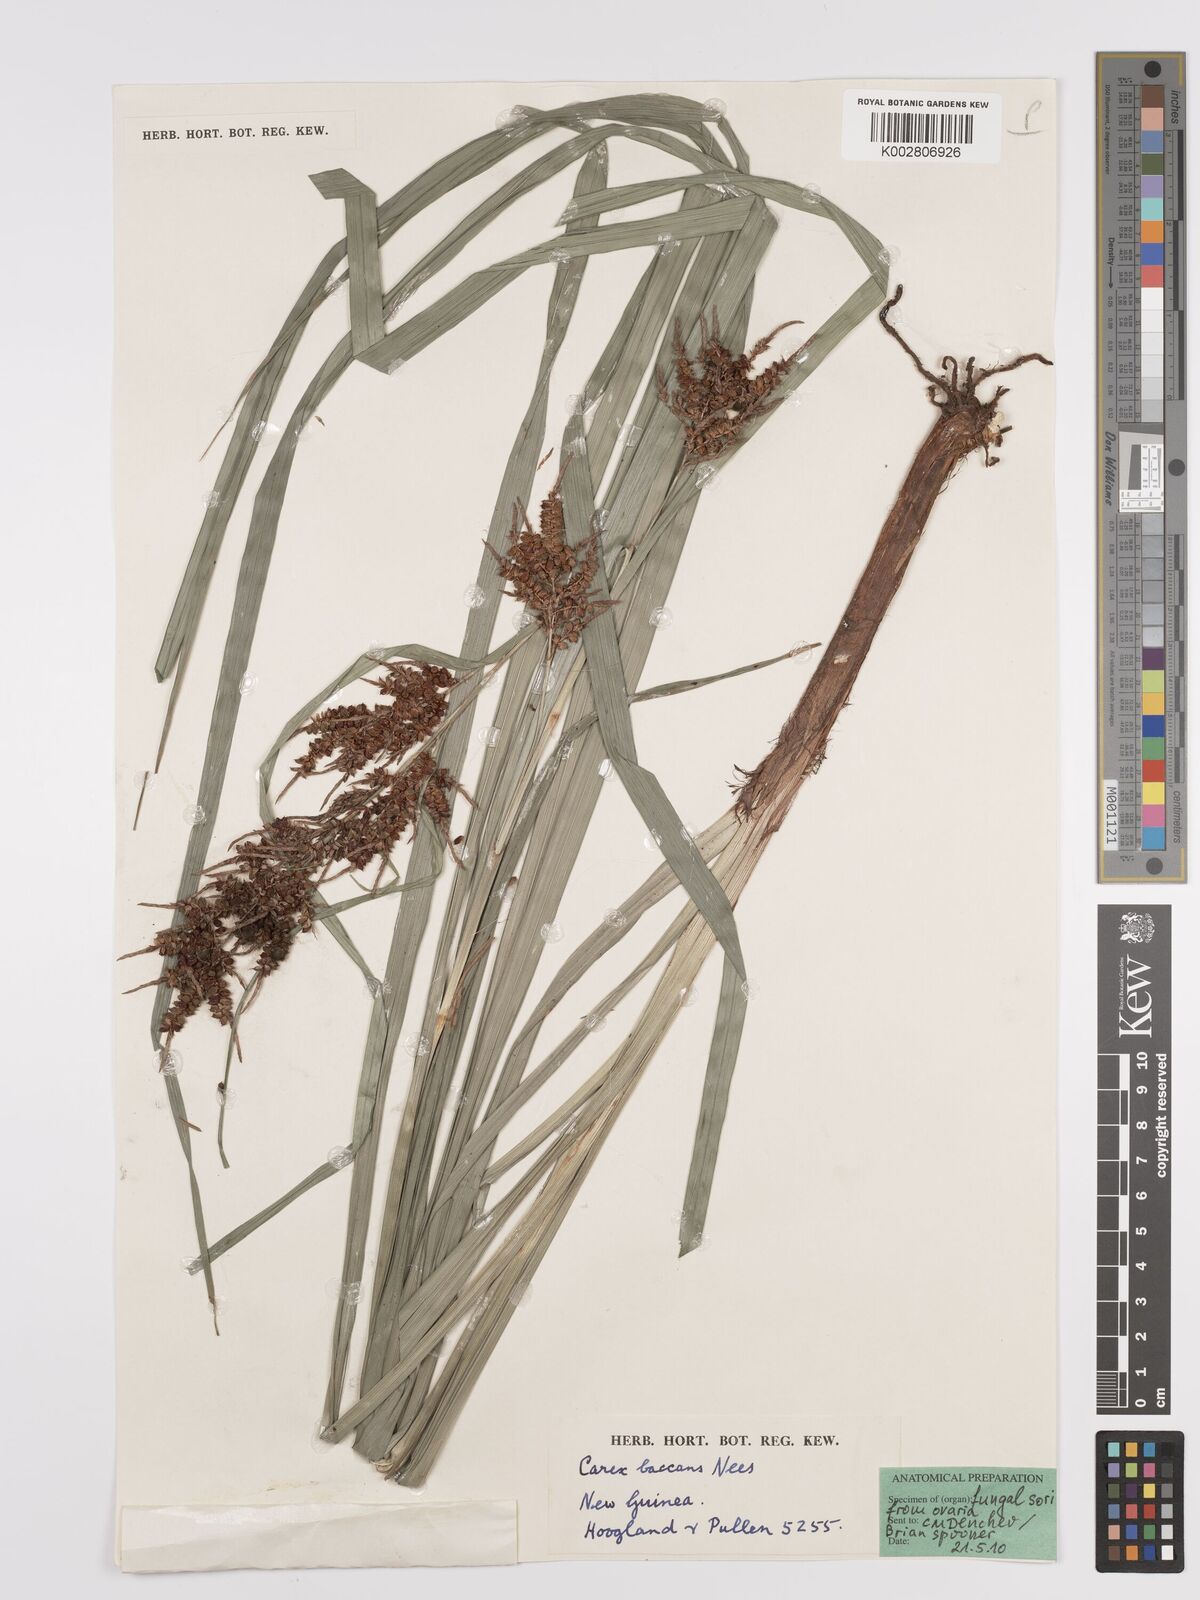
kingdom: Plantae
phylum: Tracheophyta
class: Liliopsida
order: Poales
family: Cyperaceae
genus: Carex
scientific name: Carex baccans
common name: Crimson seeded sedge
